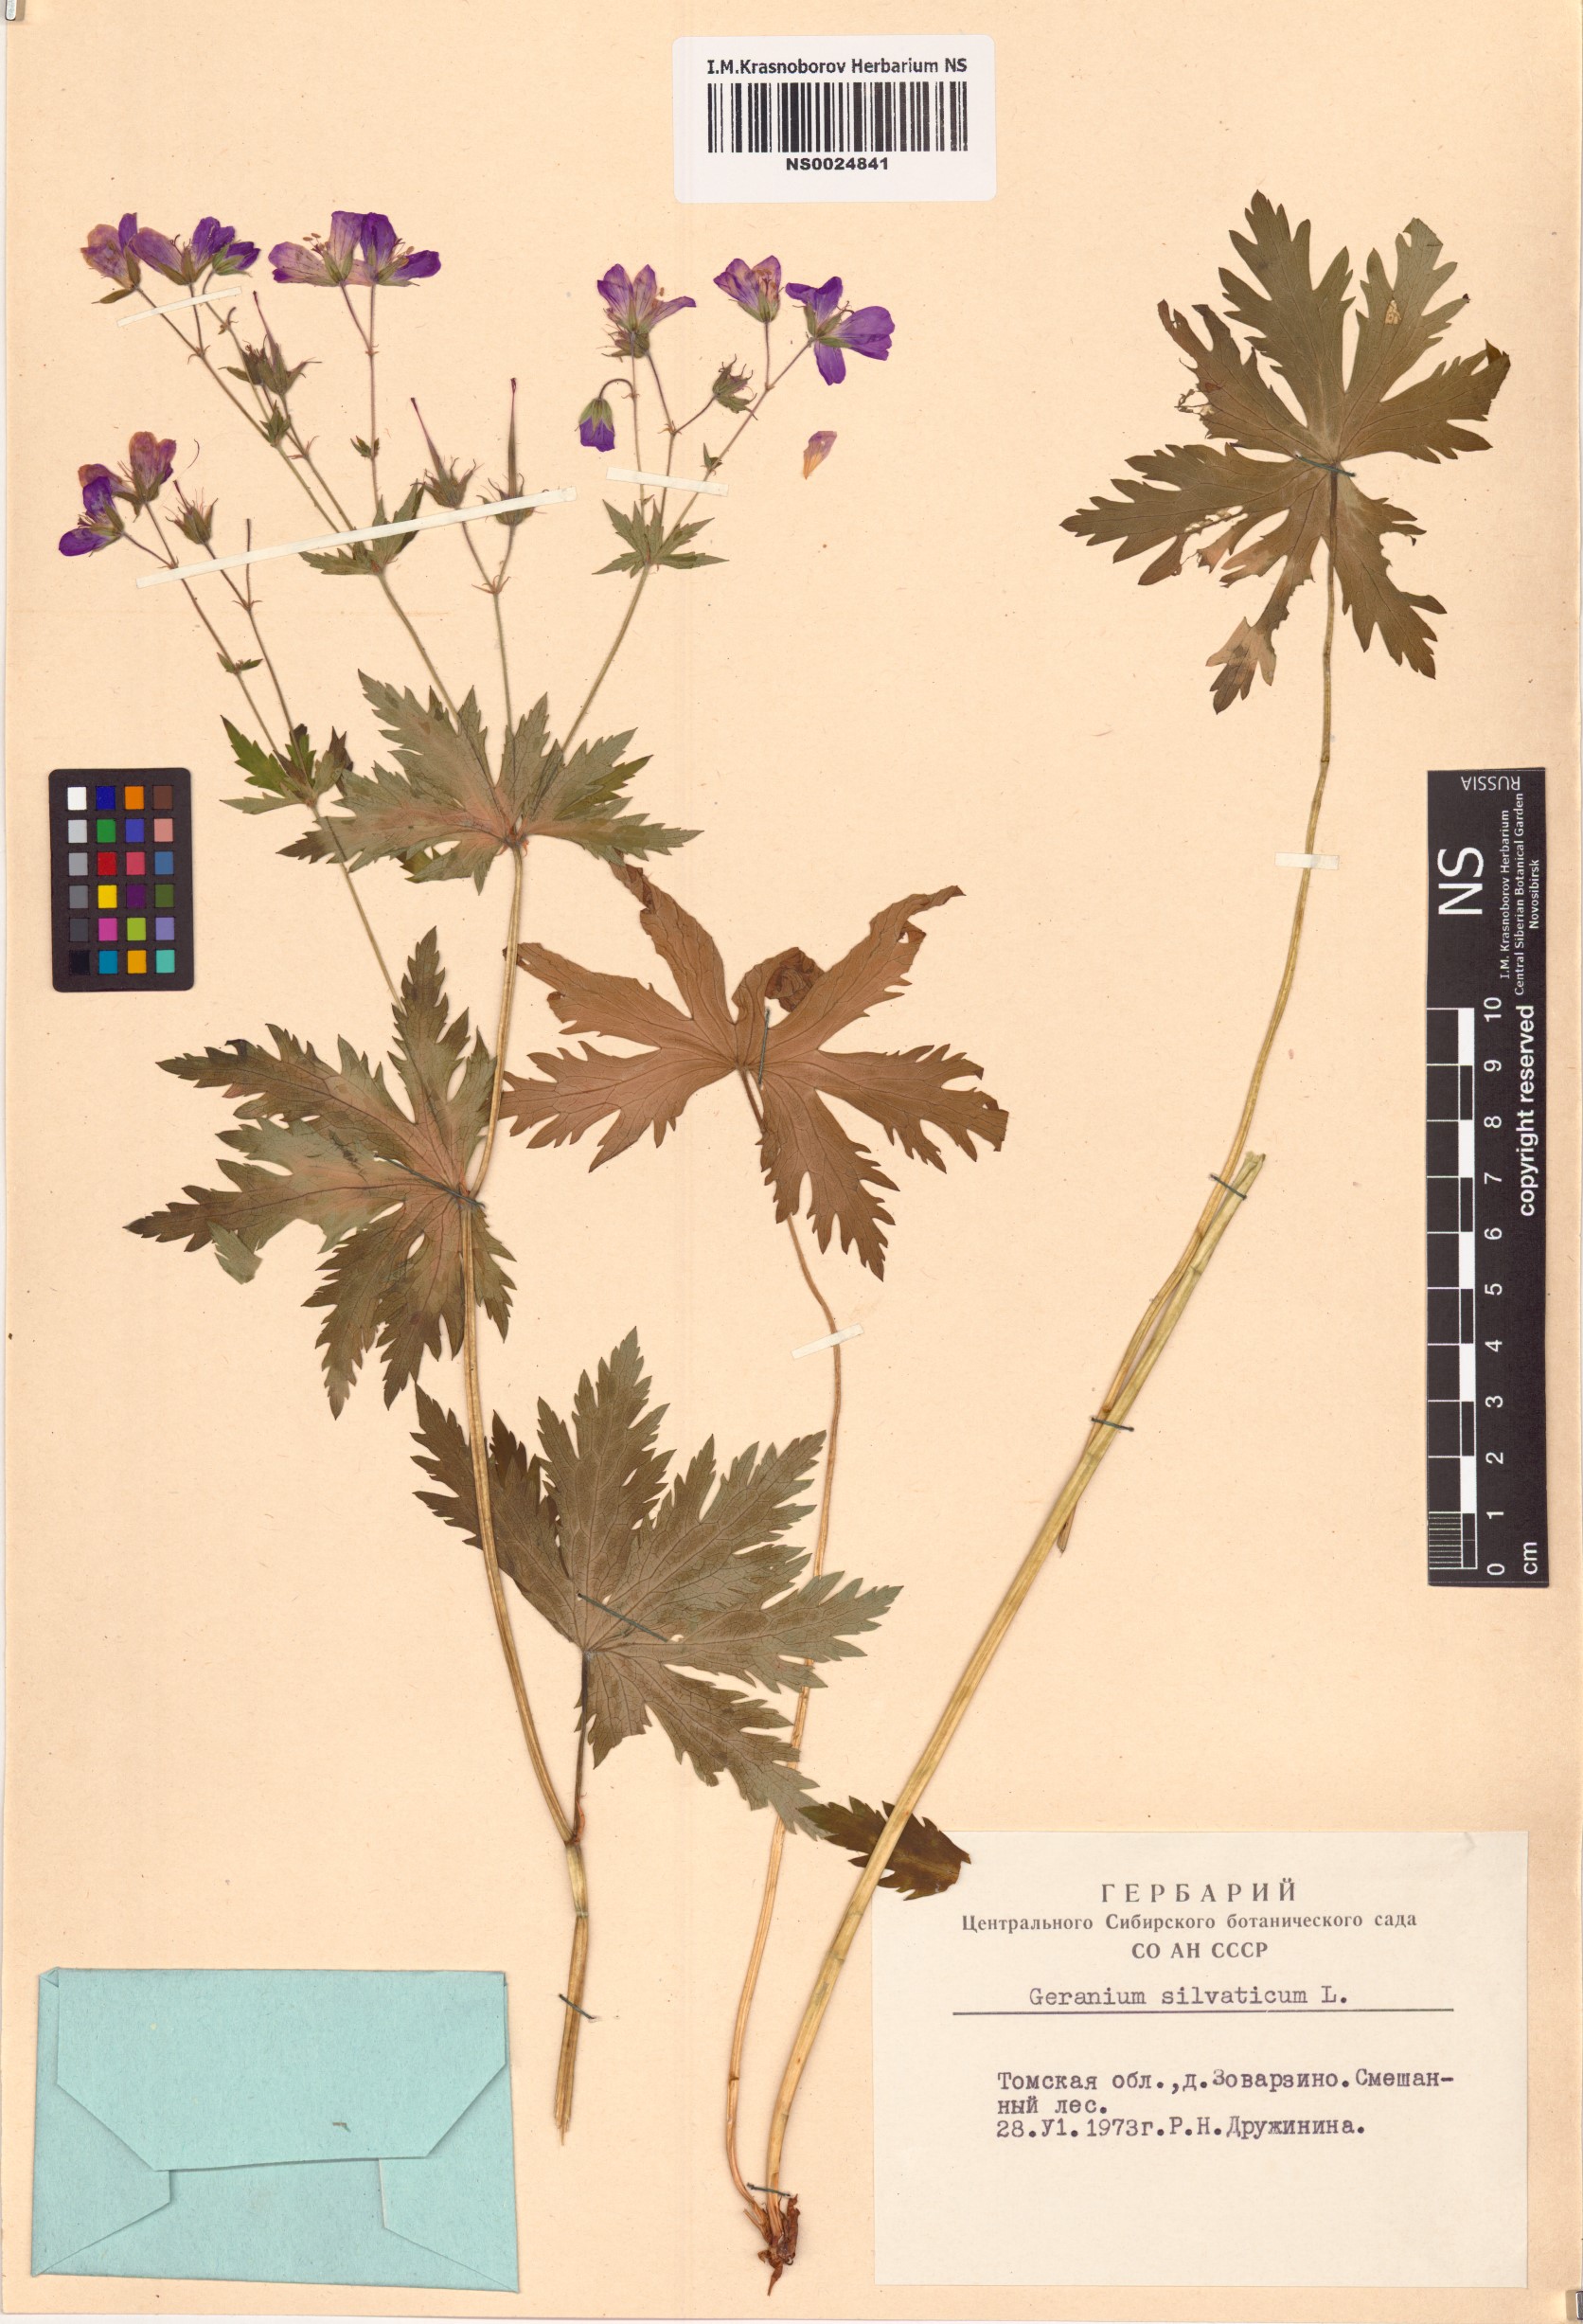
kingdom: Plantae
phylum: Tracheophyta
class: Magnoliopsida
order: Geraniales
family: Geraniaceae
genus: Geranium
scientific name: Geranium sylvaticum
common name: Wood crane's-bill
